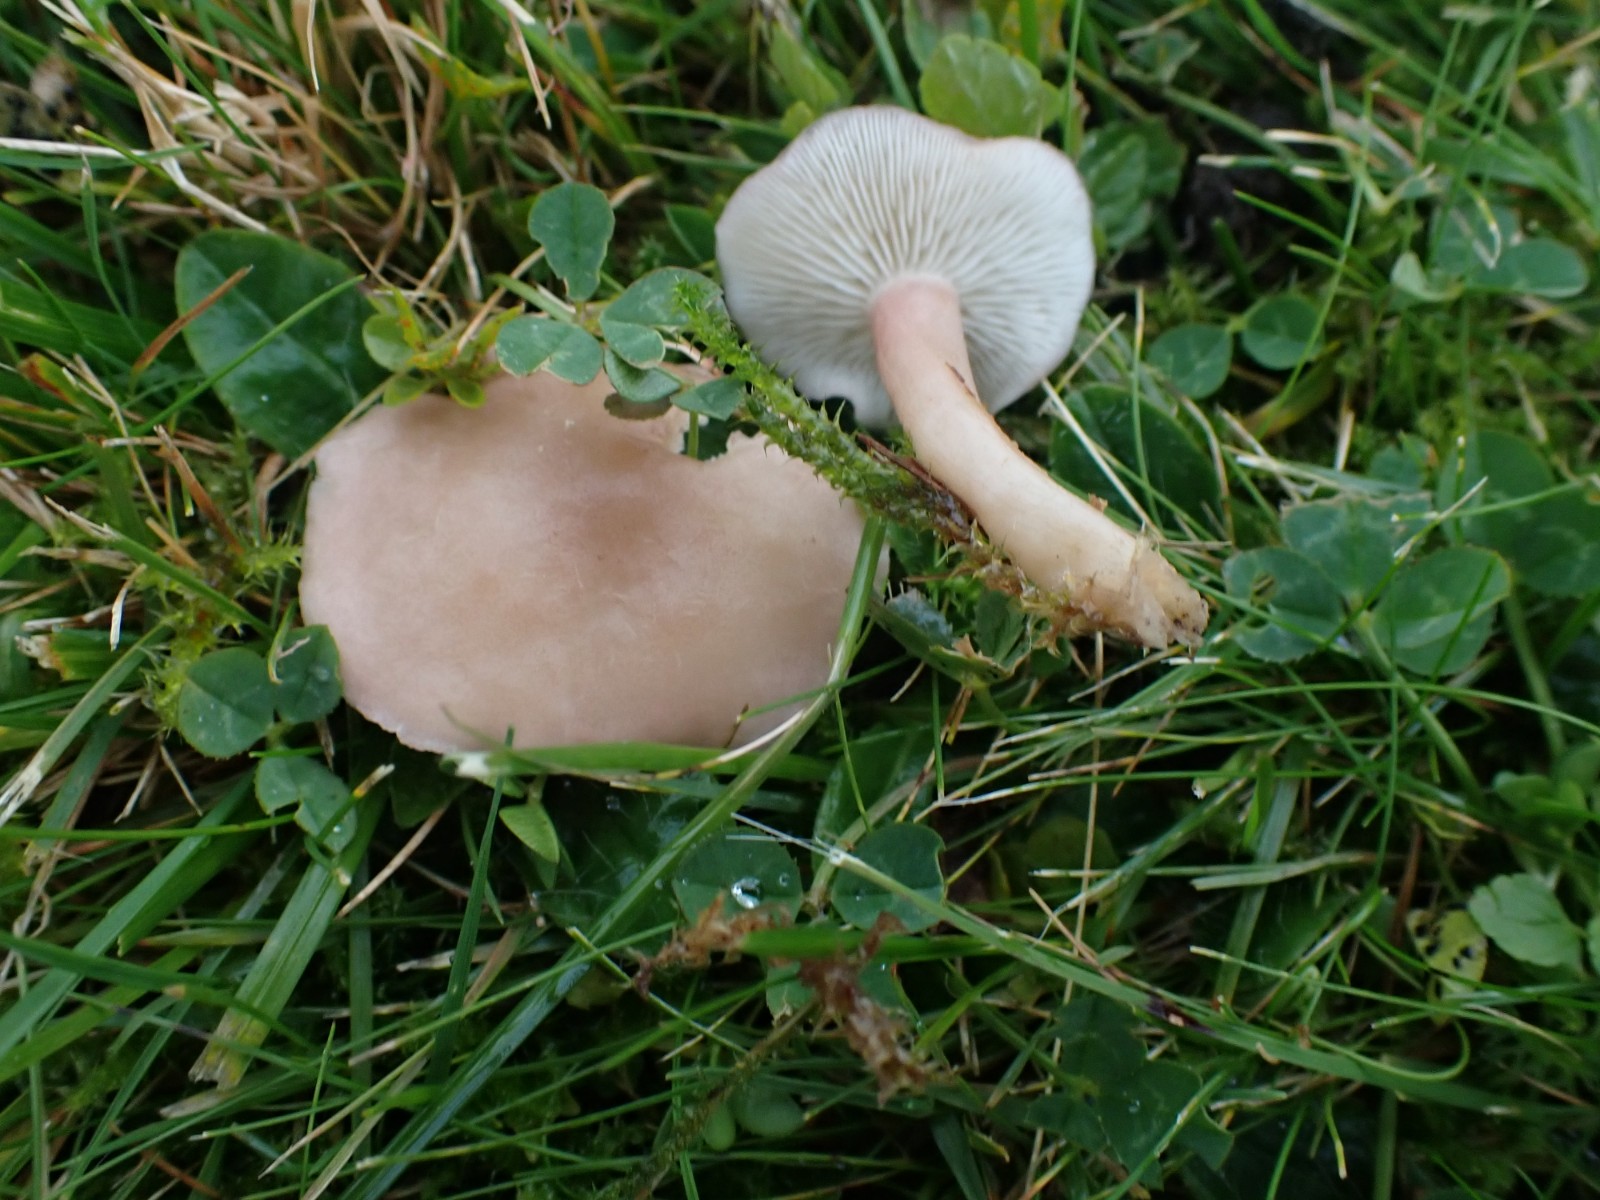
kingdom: Fungi
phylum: Basidiomycota
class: Agaricomycetes
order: Agaricales
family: Lyophyllaceae
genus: Calocybe
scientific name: Calocybe carnea
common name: rosa fagerhat
